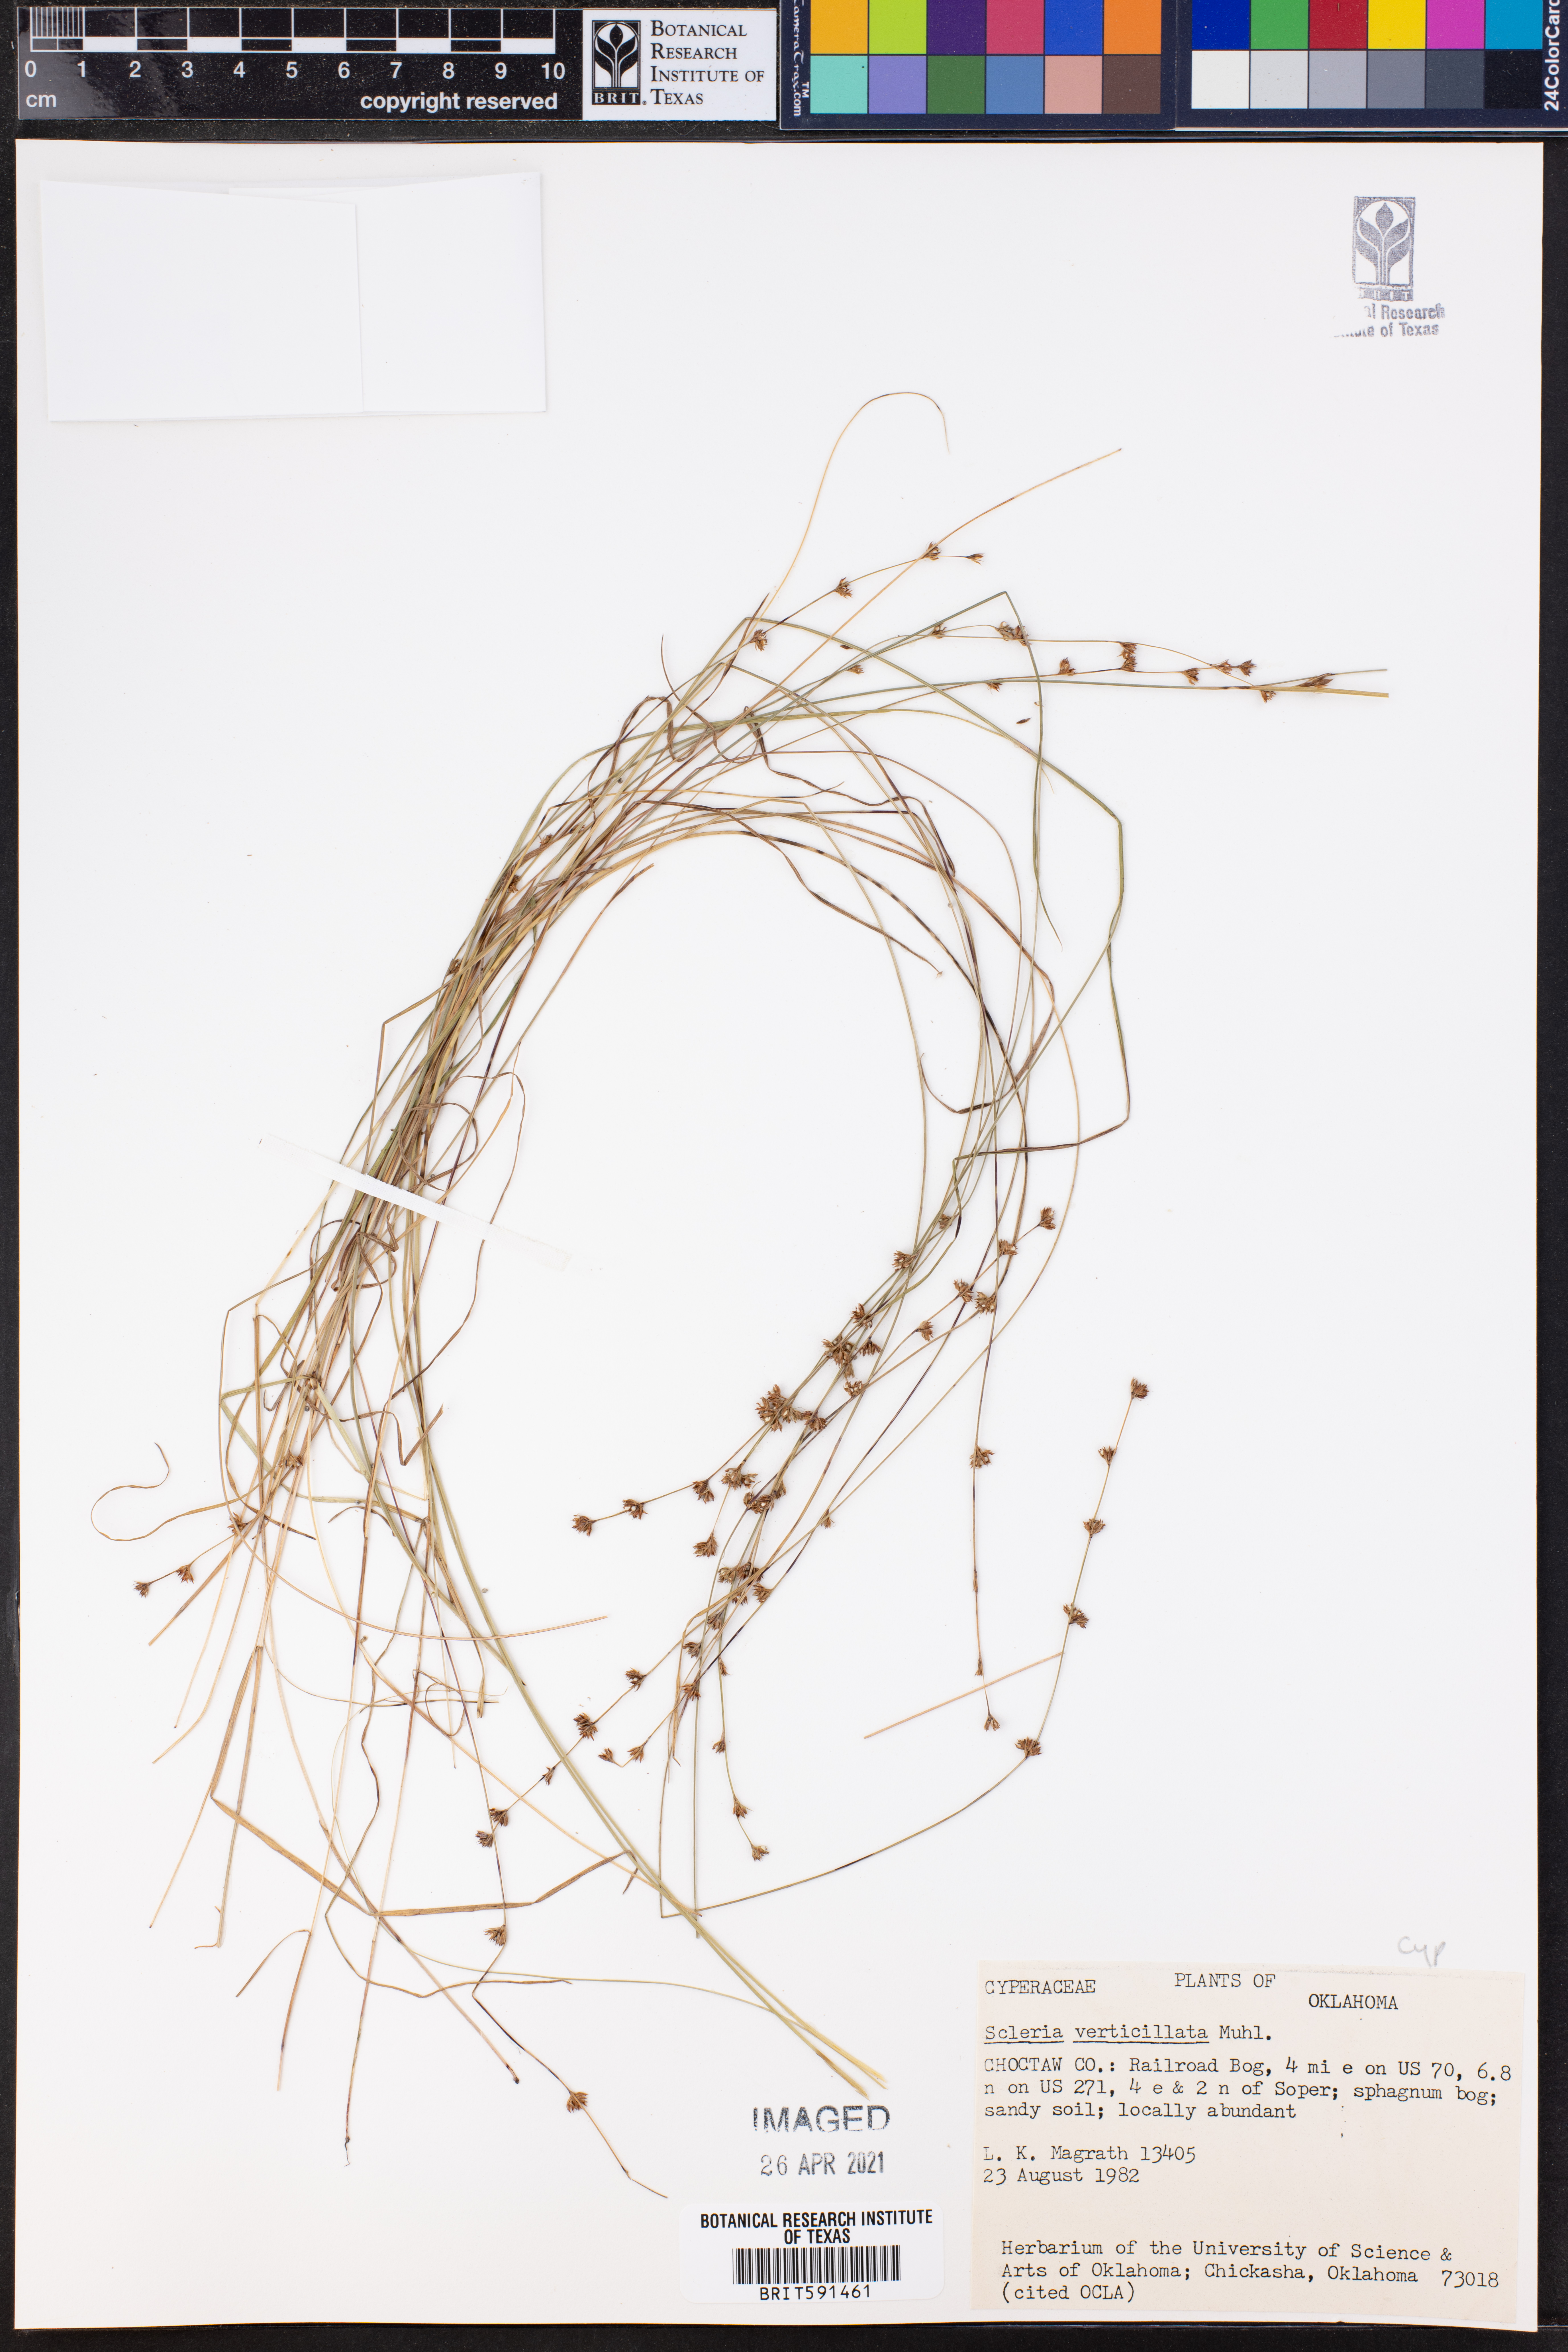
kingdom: Plantae
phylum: Tracheophyta
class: Liliopsida
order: Poales
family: Cyperaceae
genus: Scleria
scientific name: Scleria verticillata
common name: Low nutrush
